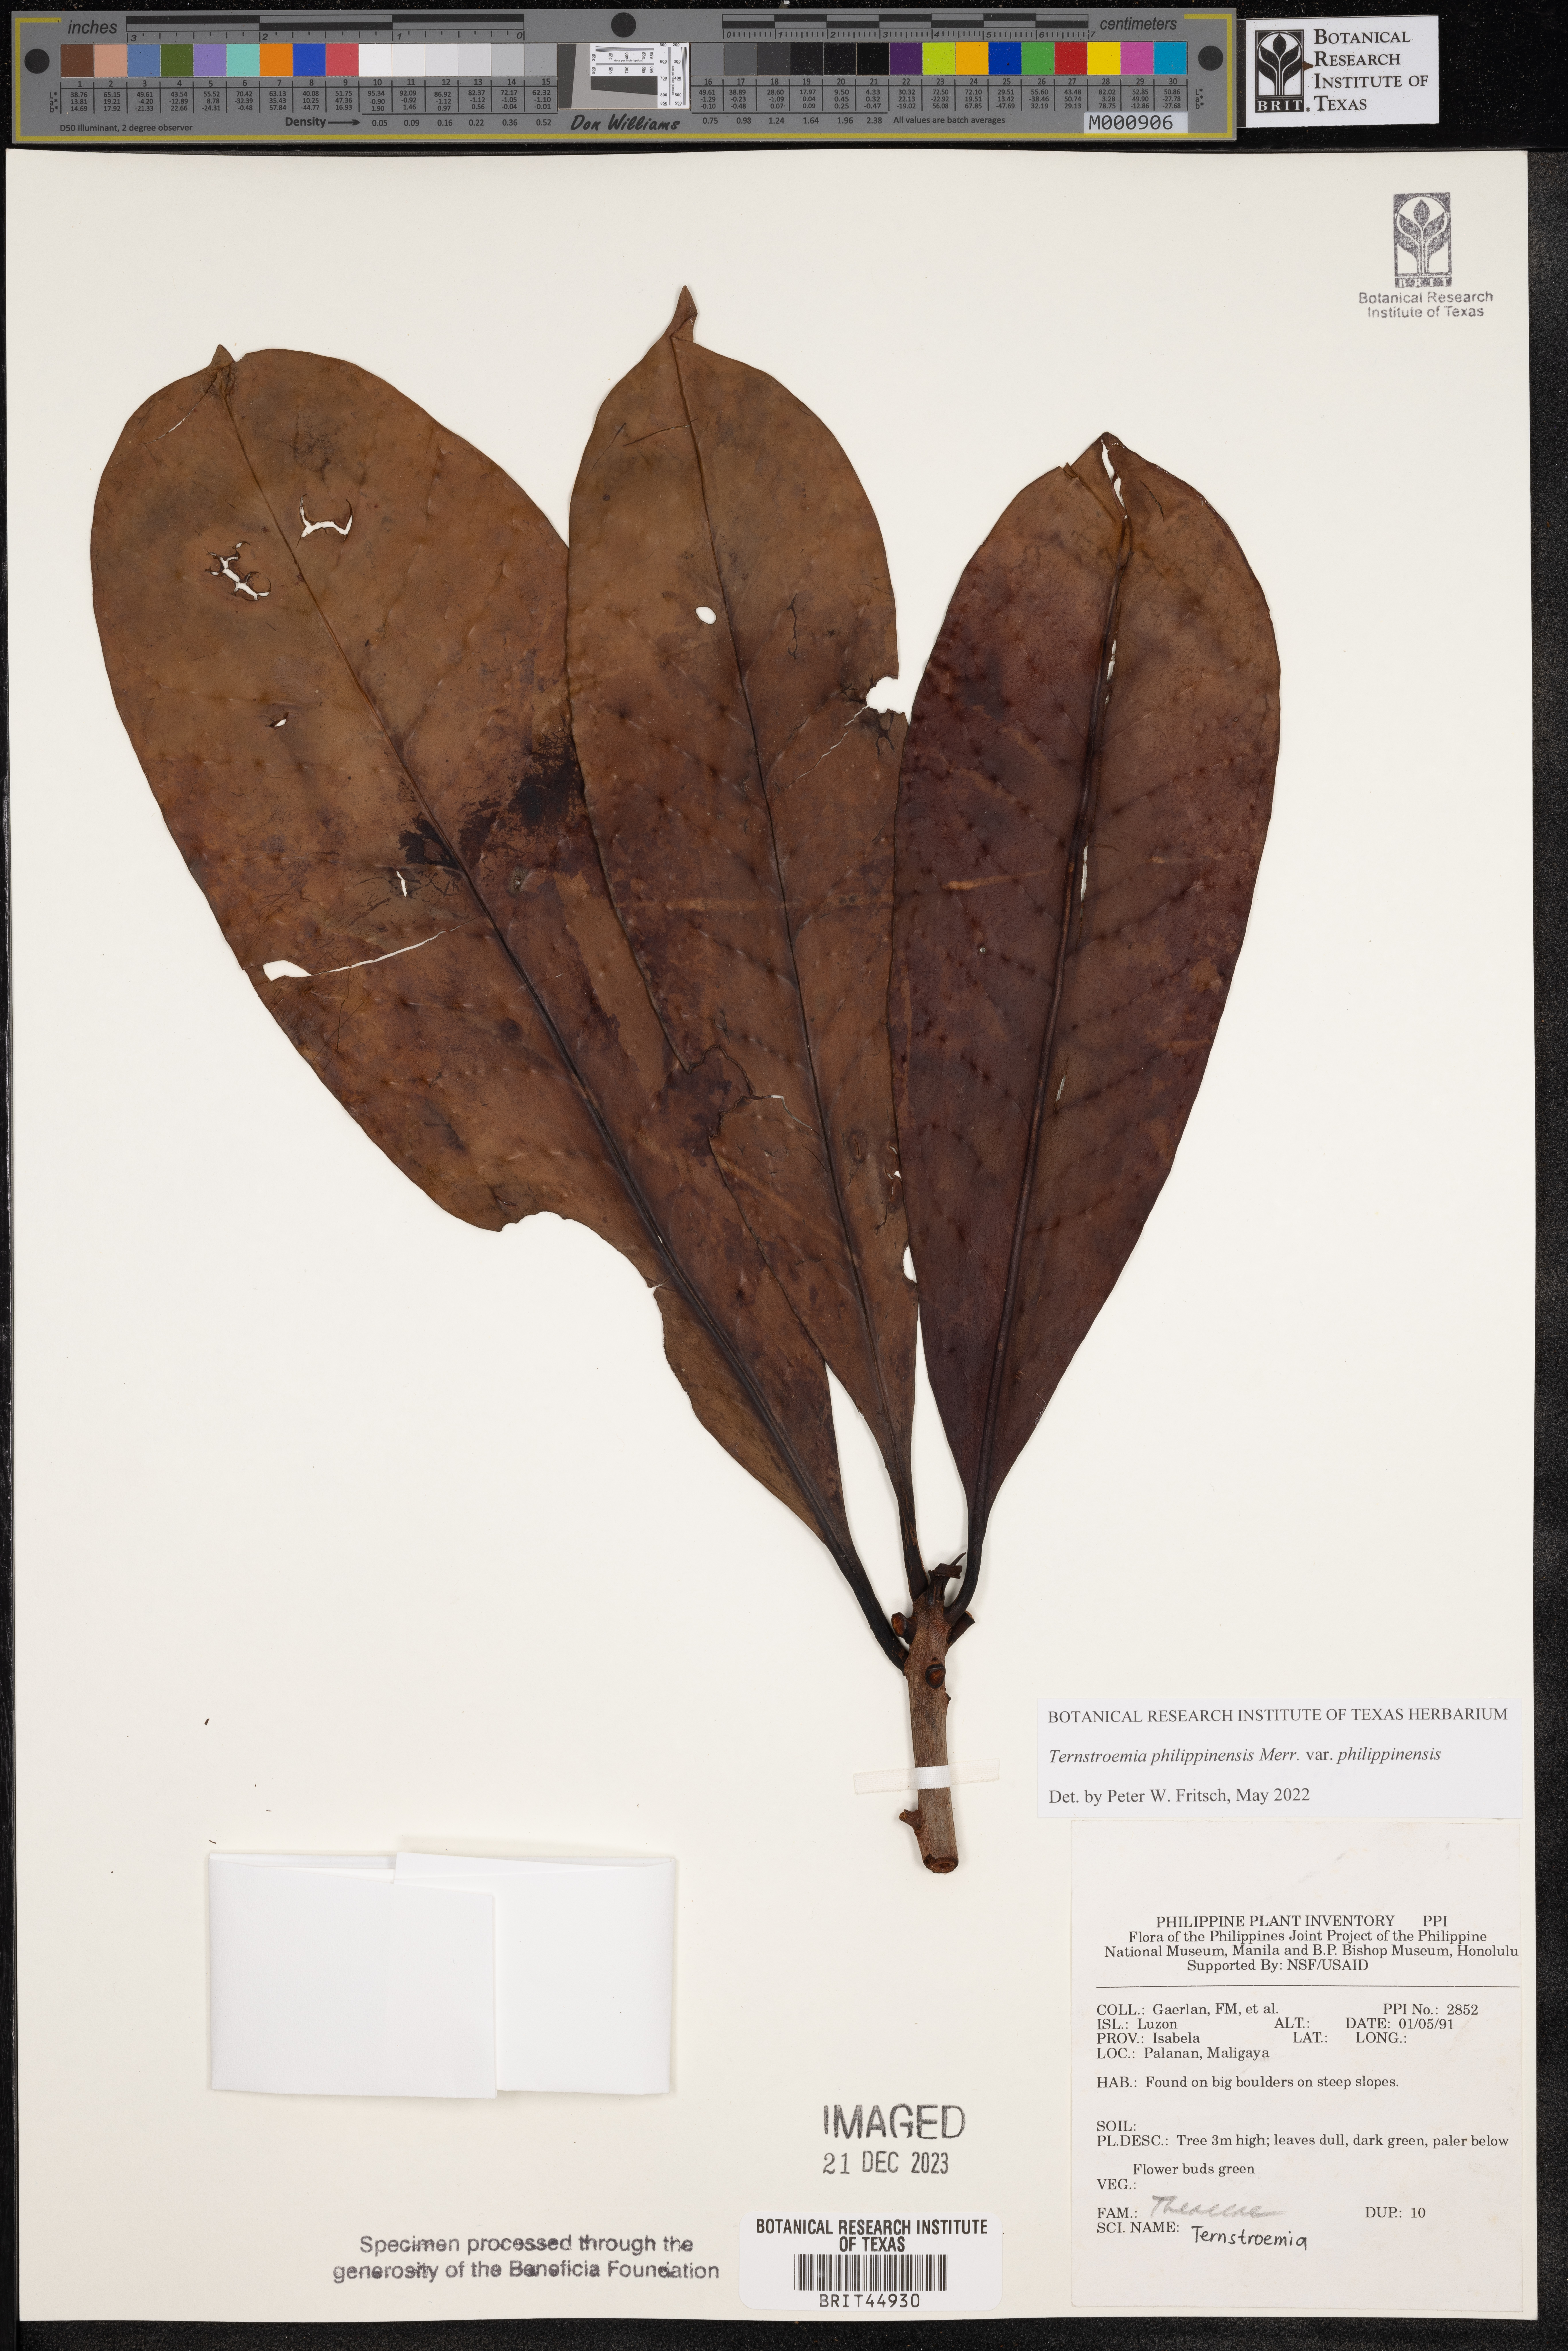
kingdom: Plantae
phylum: Tracheophyta
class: Magnoliopsida
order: Ericales
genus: Ternstroemia
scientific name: Ternstroemia
